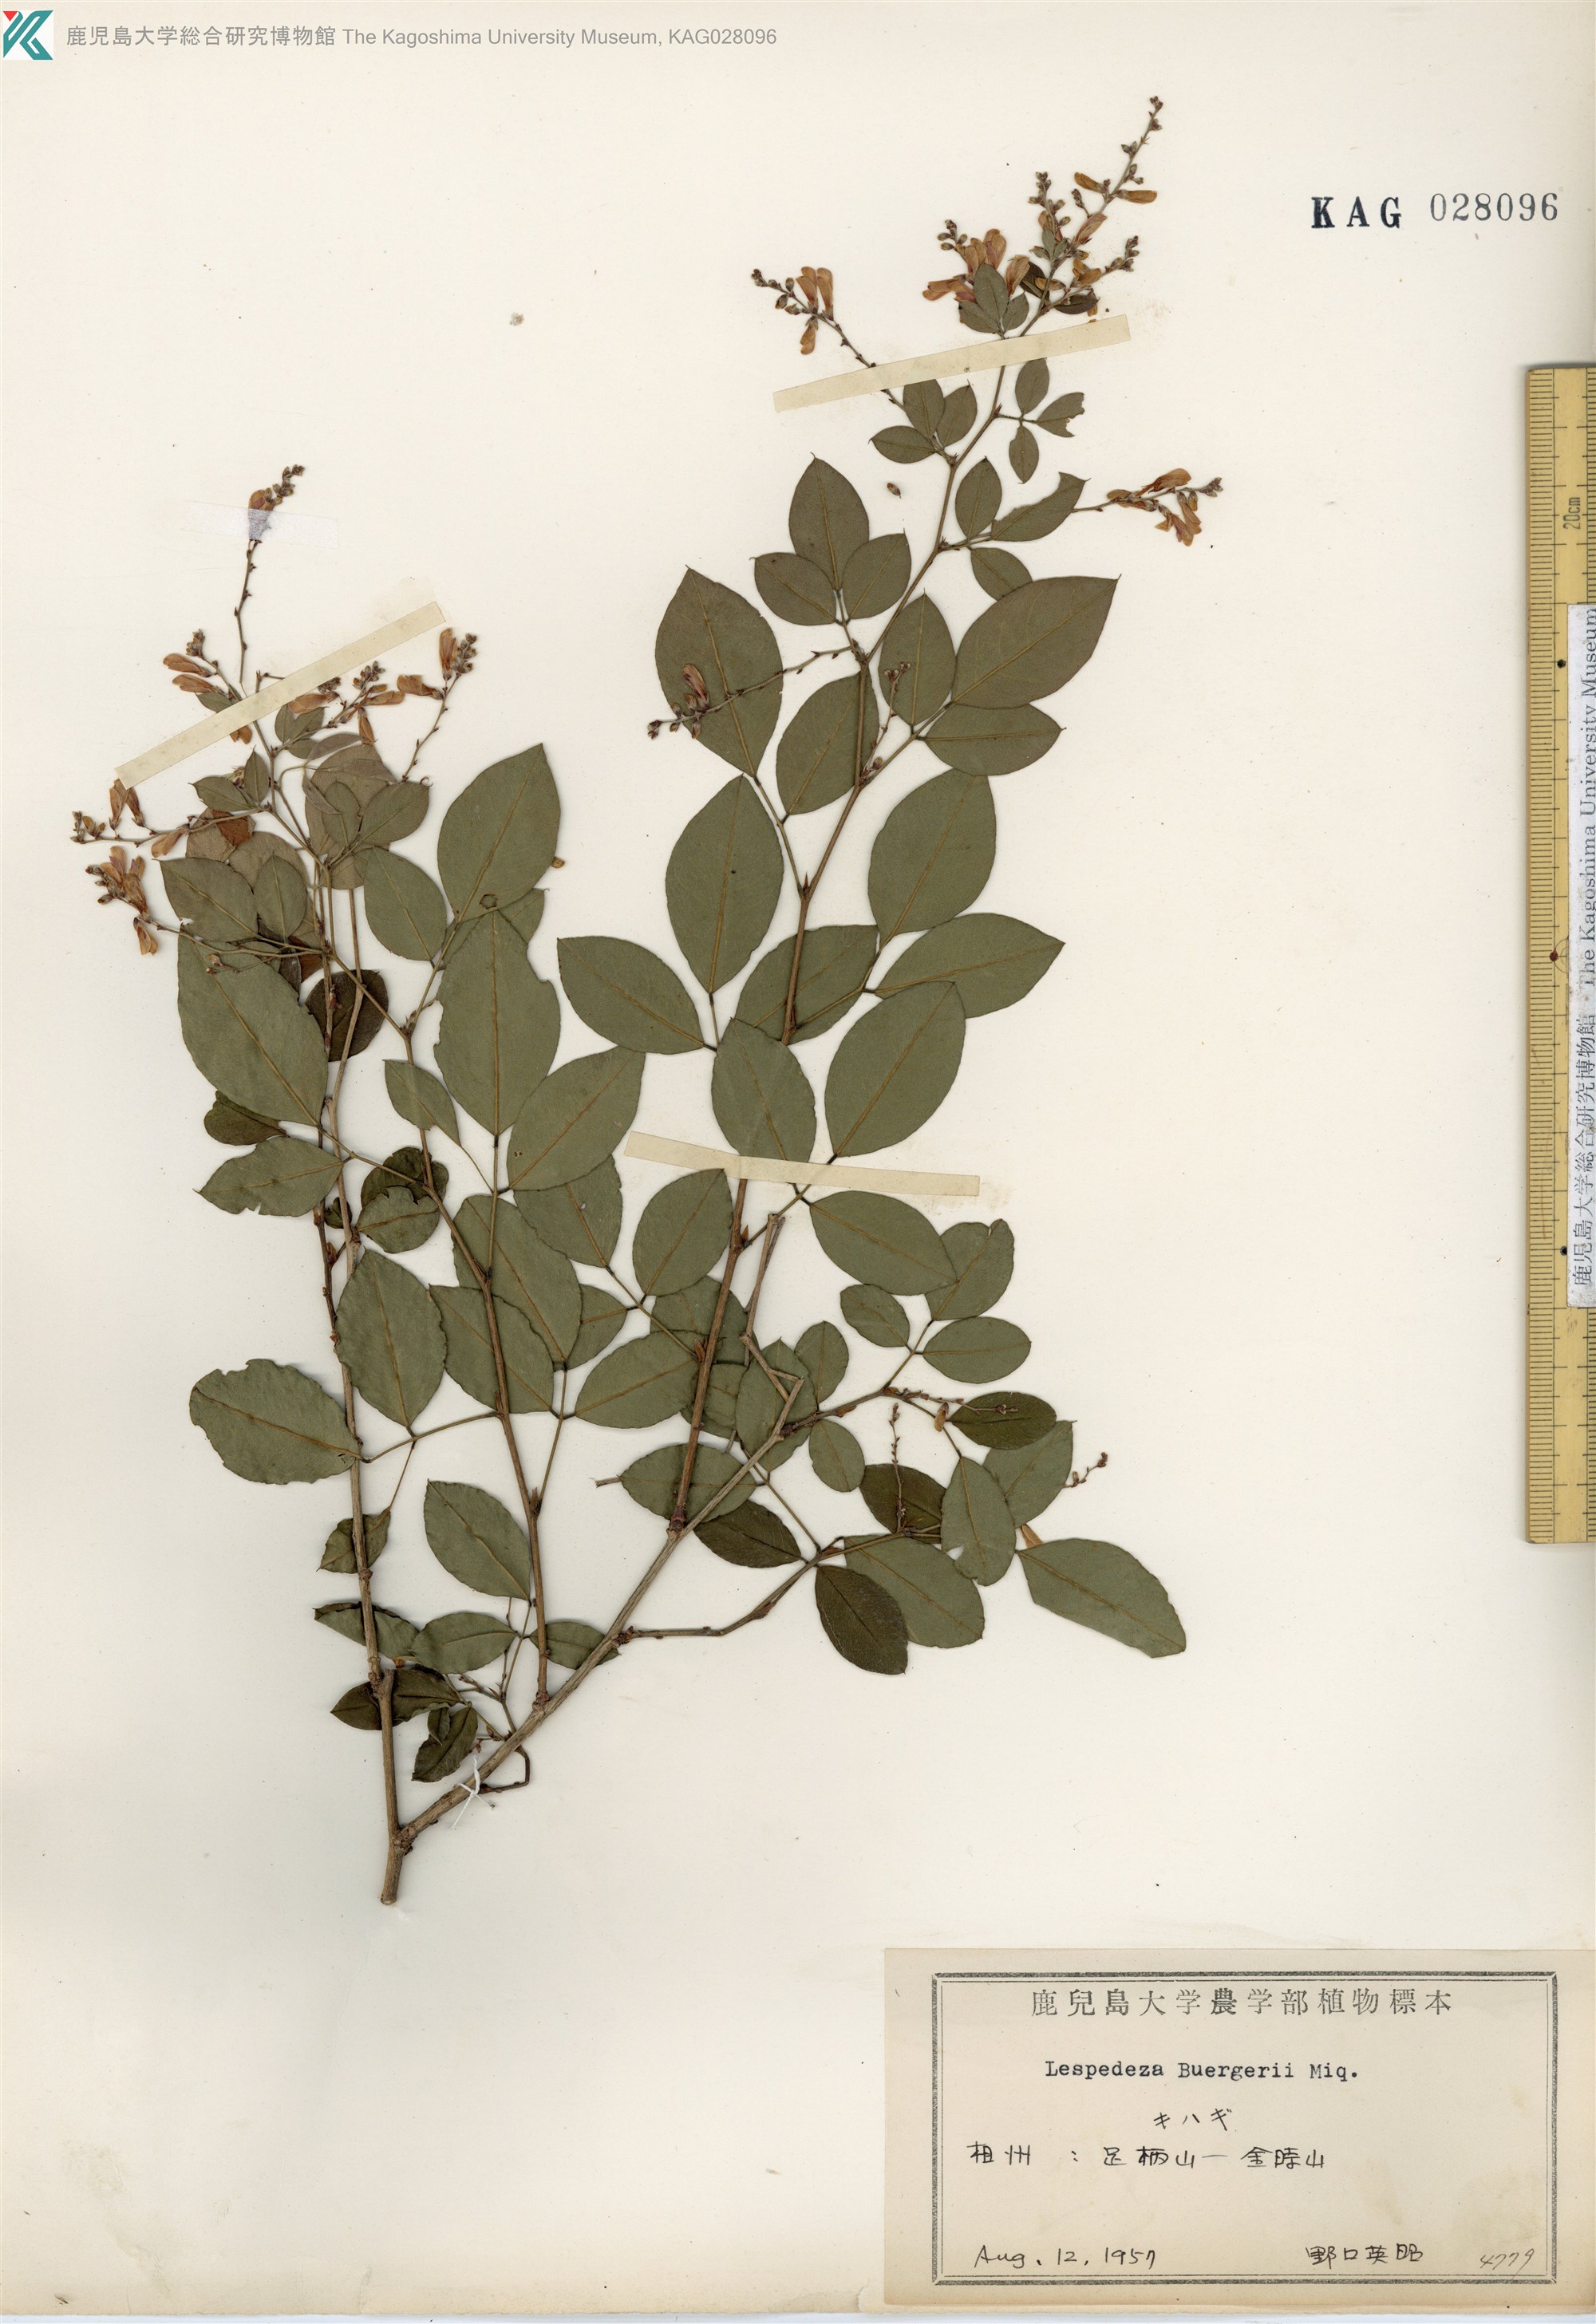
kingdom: Plantae
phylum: Tracheophyta
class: Magnoliopsida
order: Fabales
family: Fabaceae
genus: Lespedeza
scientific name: Lespedeza buergeri
